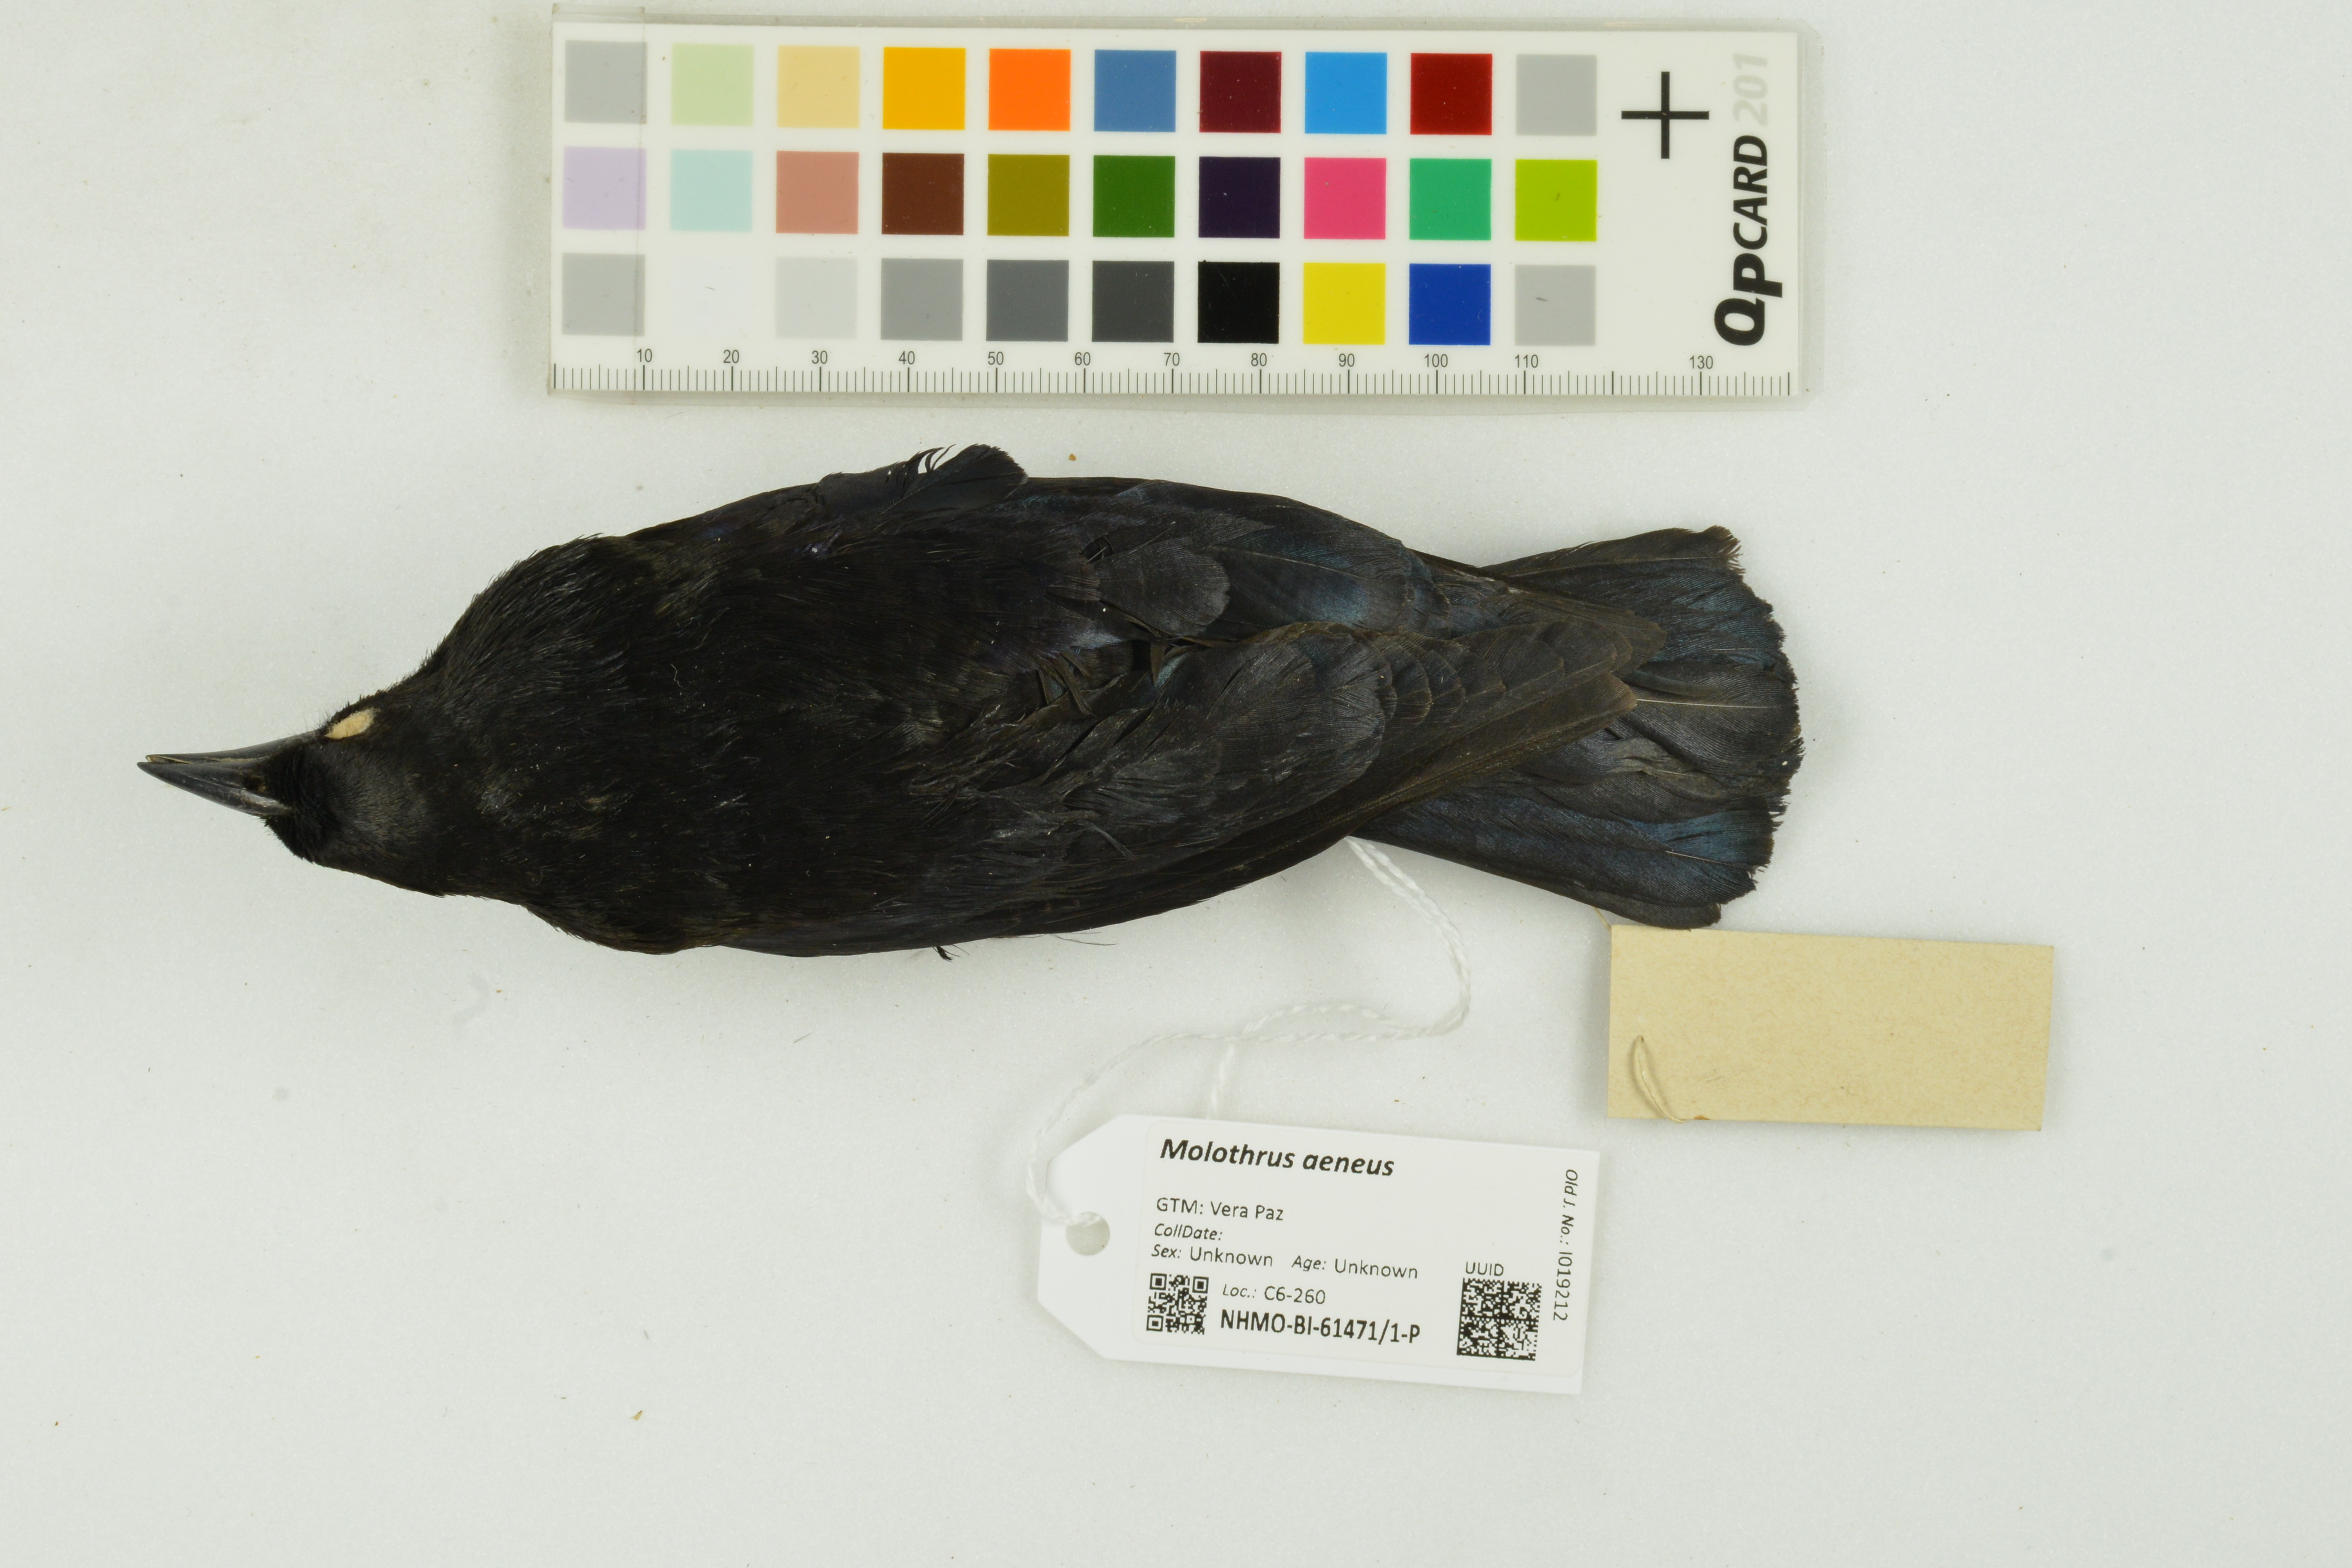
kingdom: Animalia
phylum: Chordata
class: Aves
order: Passeriformes
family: Icteridae
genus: Molothrus
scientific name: Molothrus aeneus
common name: Bronzed cowbird
